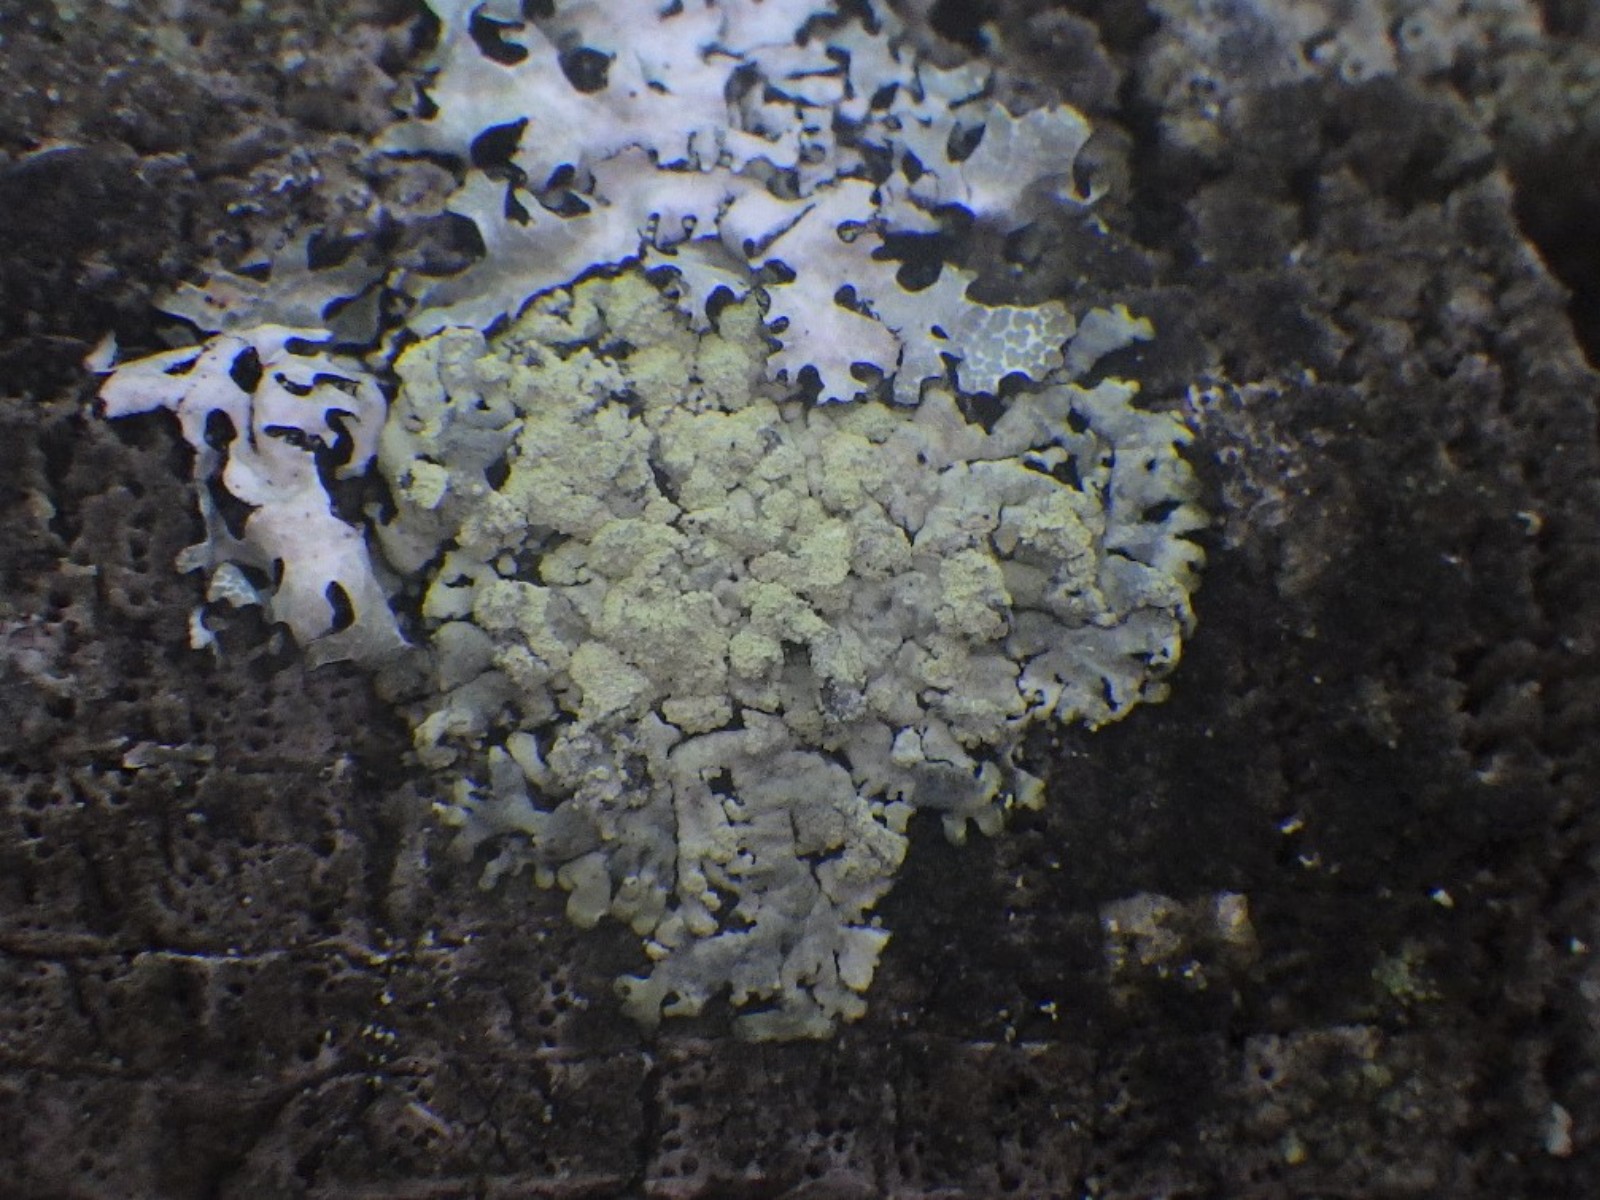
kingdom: Fungi
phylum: Ascomycota
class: Lecanoromycetes
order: Lecanorales
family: Parmeliaceae
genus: Parmeliopsis
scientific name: Parmeliopsis ambigua
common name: gul stolpelav
